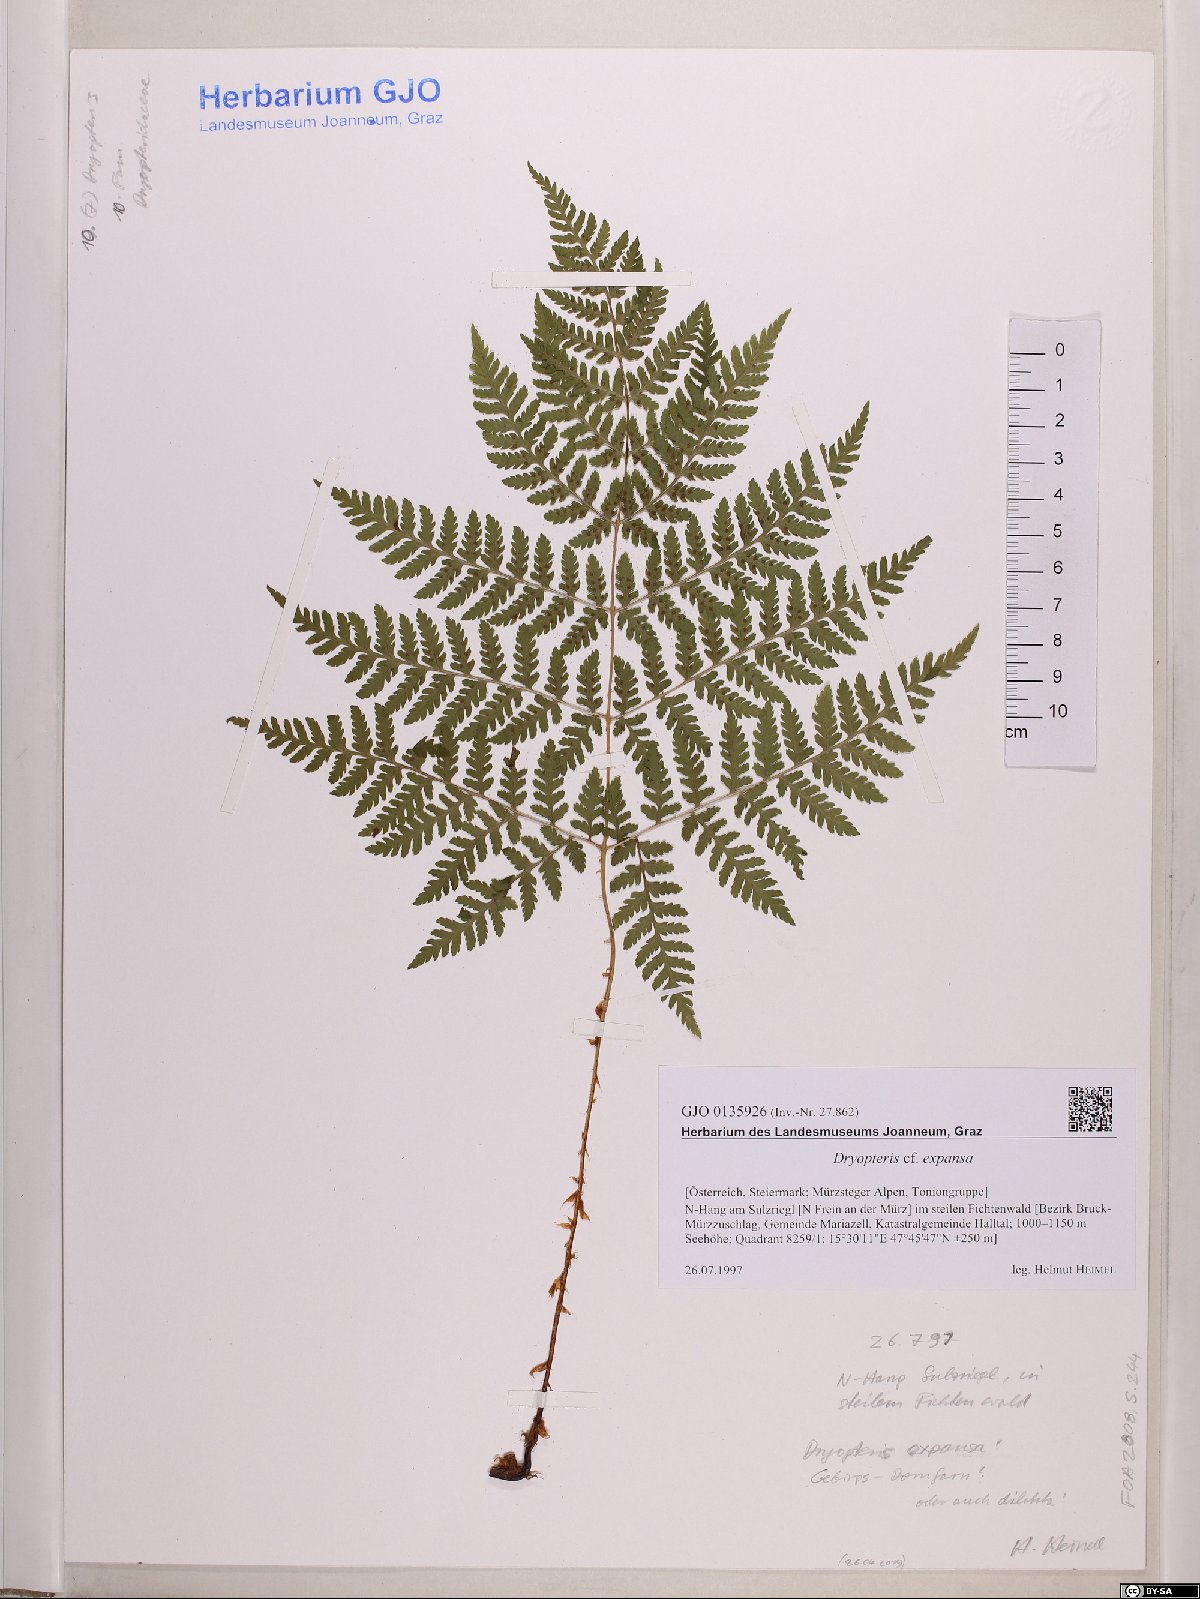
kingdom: Plantae
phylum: Tracheophyta
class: Polypodiopsida
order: Polypodiales
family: Dryopteridaceae
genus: Dryopteris
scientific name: Dryopteris expansa
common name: Northern buckler fern
